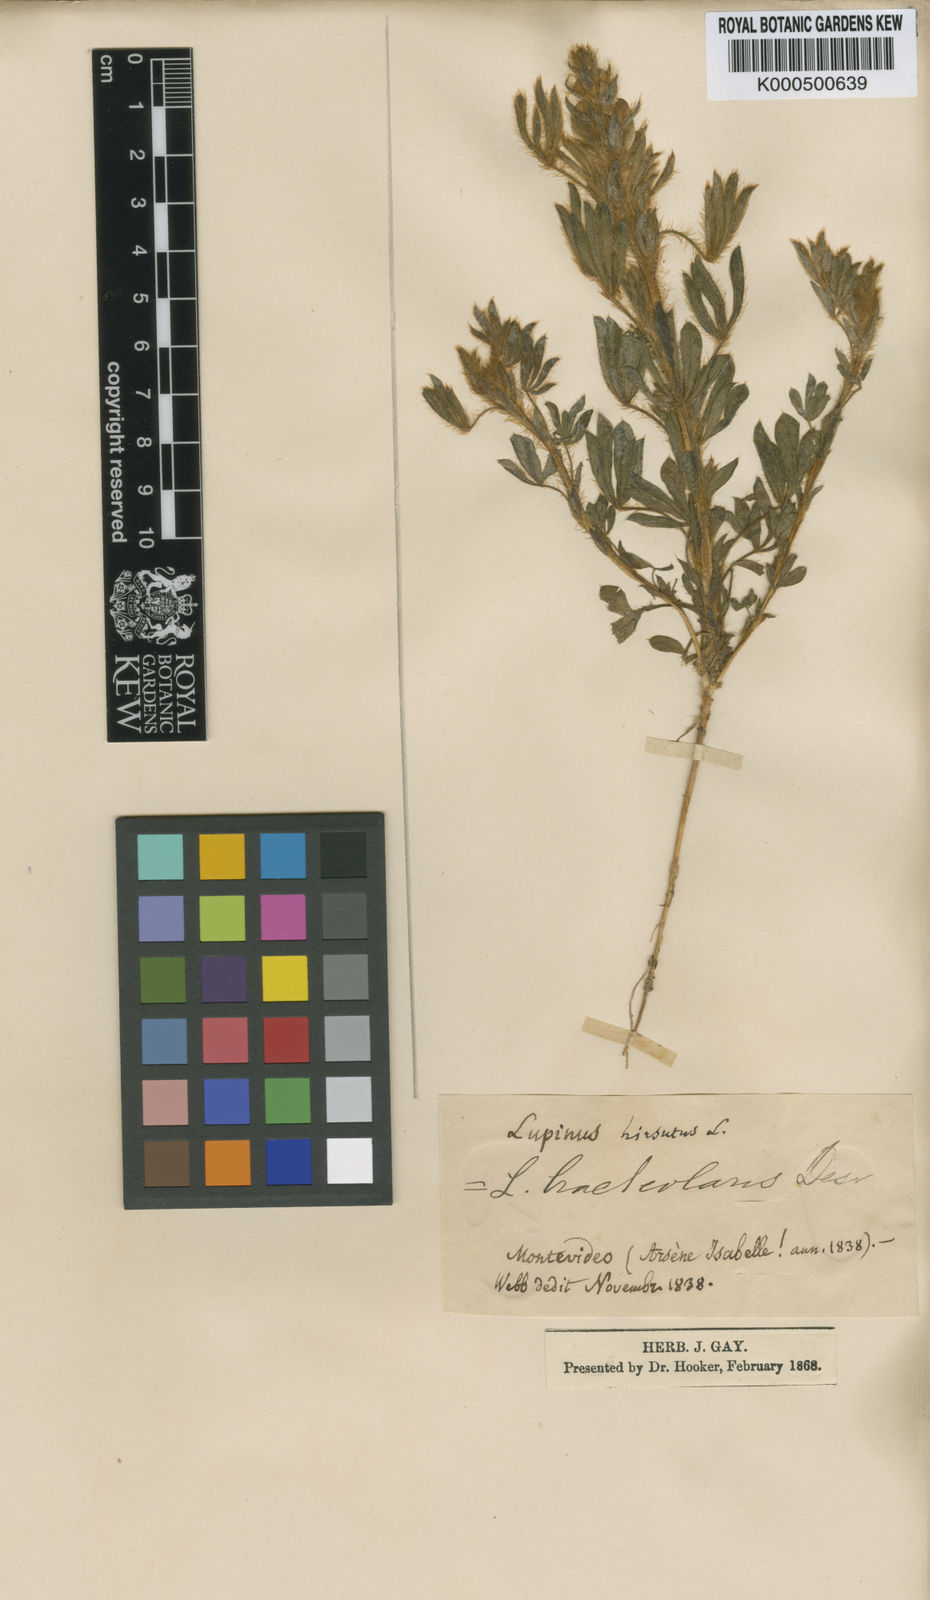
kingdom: Plantae
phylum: Tracheophyta
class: Magnoliopsida
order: Fabales
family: Fabaceae
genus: Lupinus
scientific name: Lupinus bracteolaris
